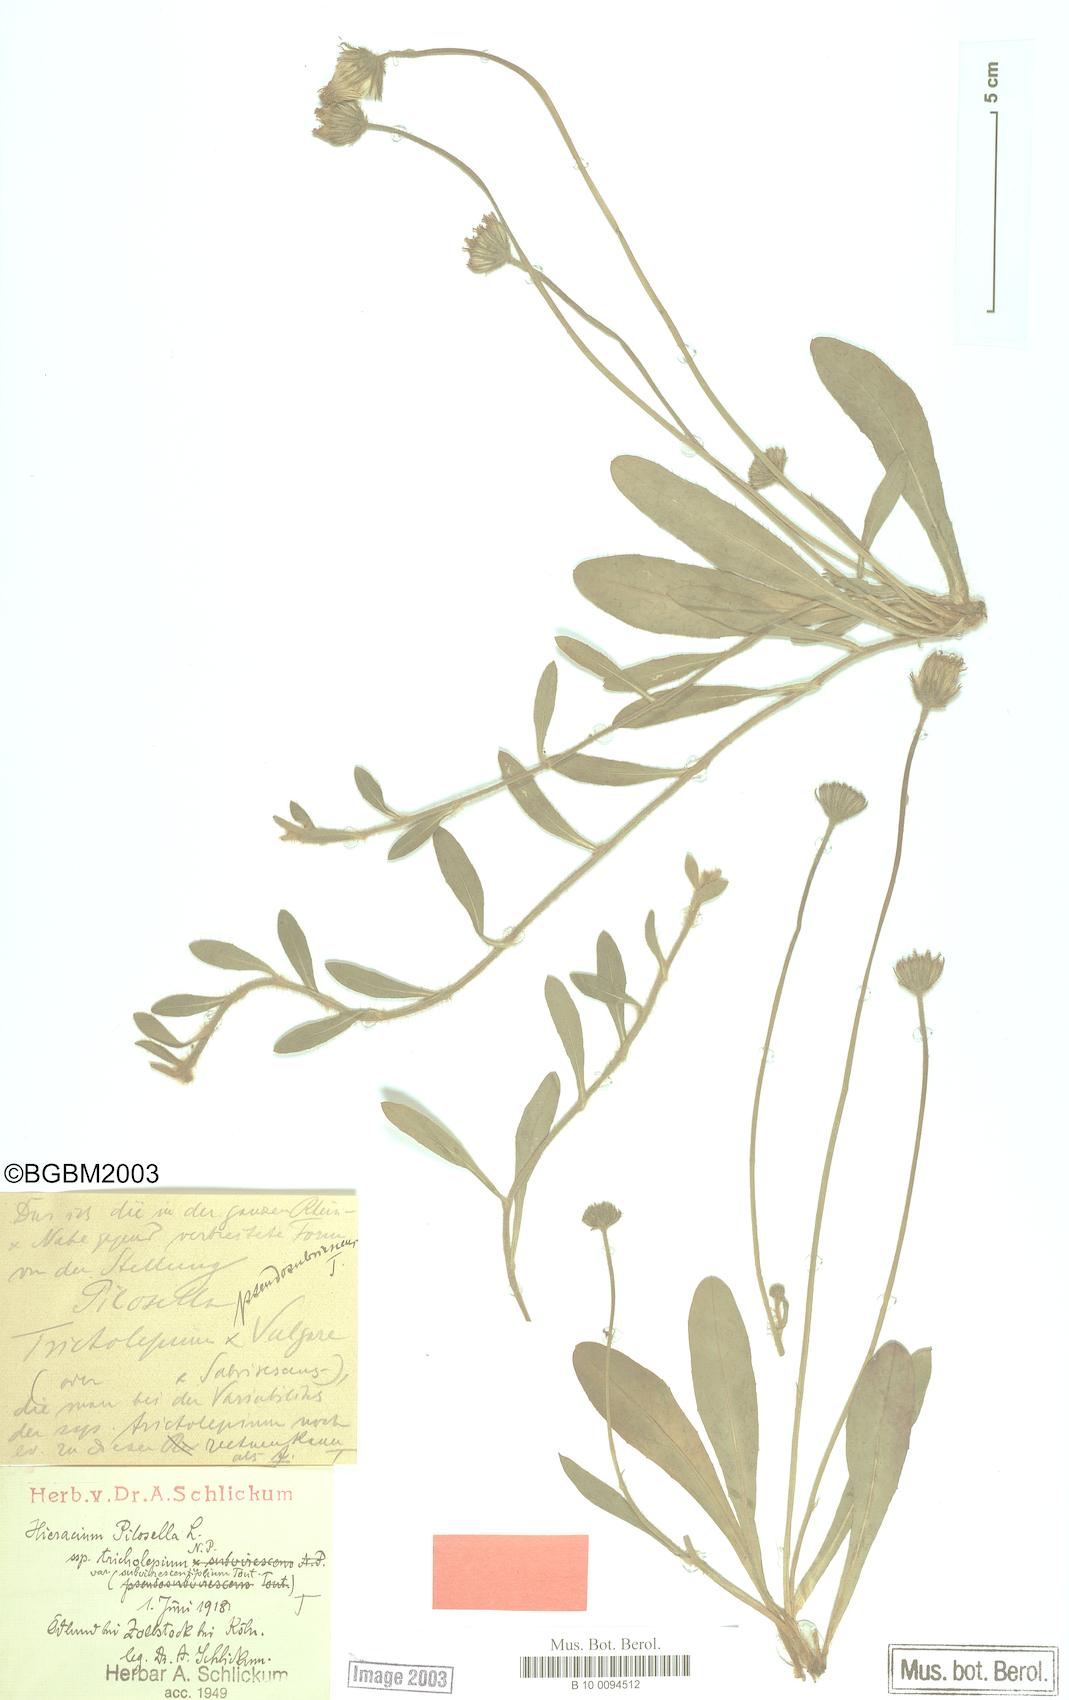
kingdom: Plantae
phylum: Tracheophyta
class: Magnoliopsida
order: Asterales
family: Asteraceae
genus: Pilosella
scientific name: Pilosella officinarum
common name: Mouse-ear hawkweed
